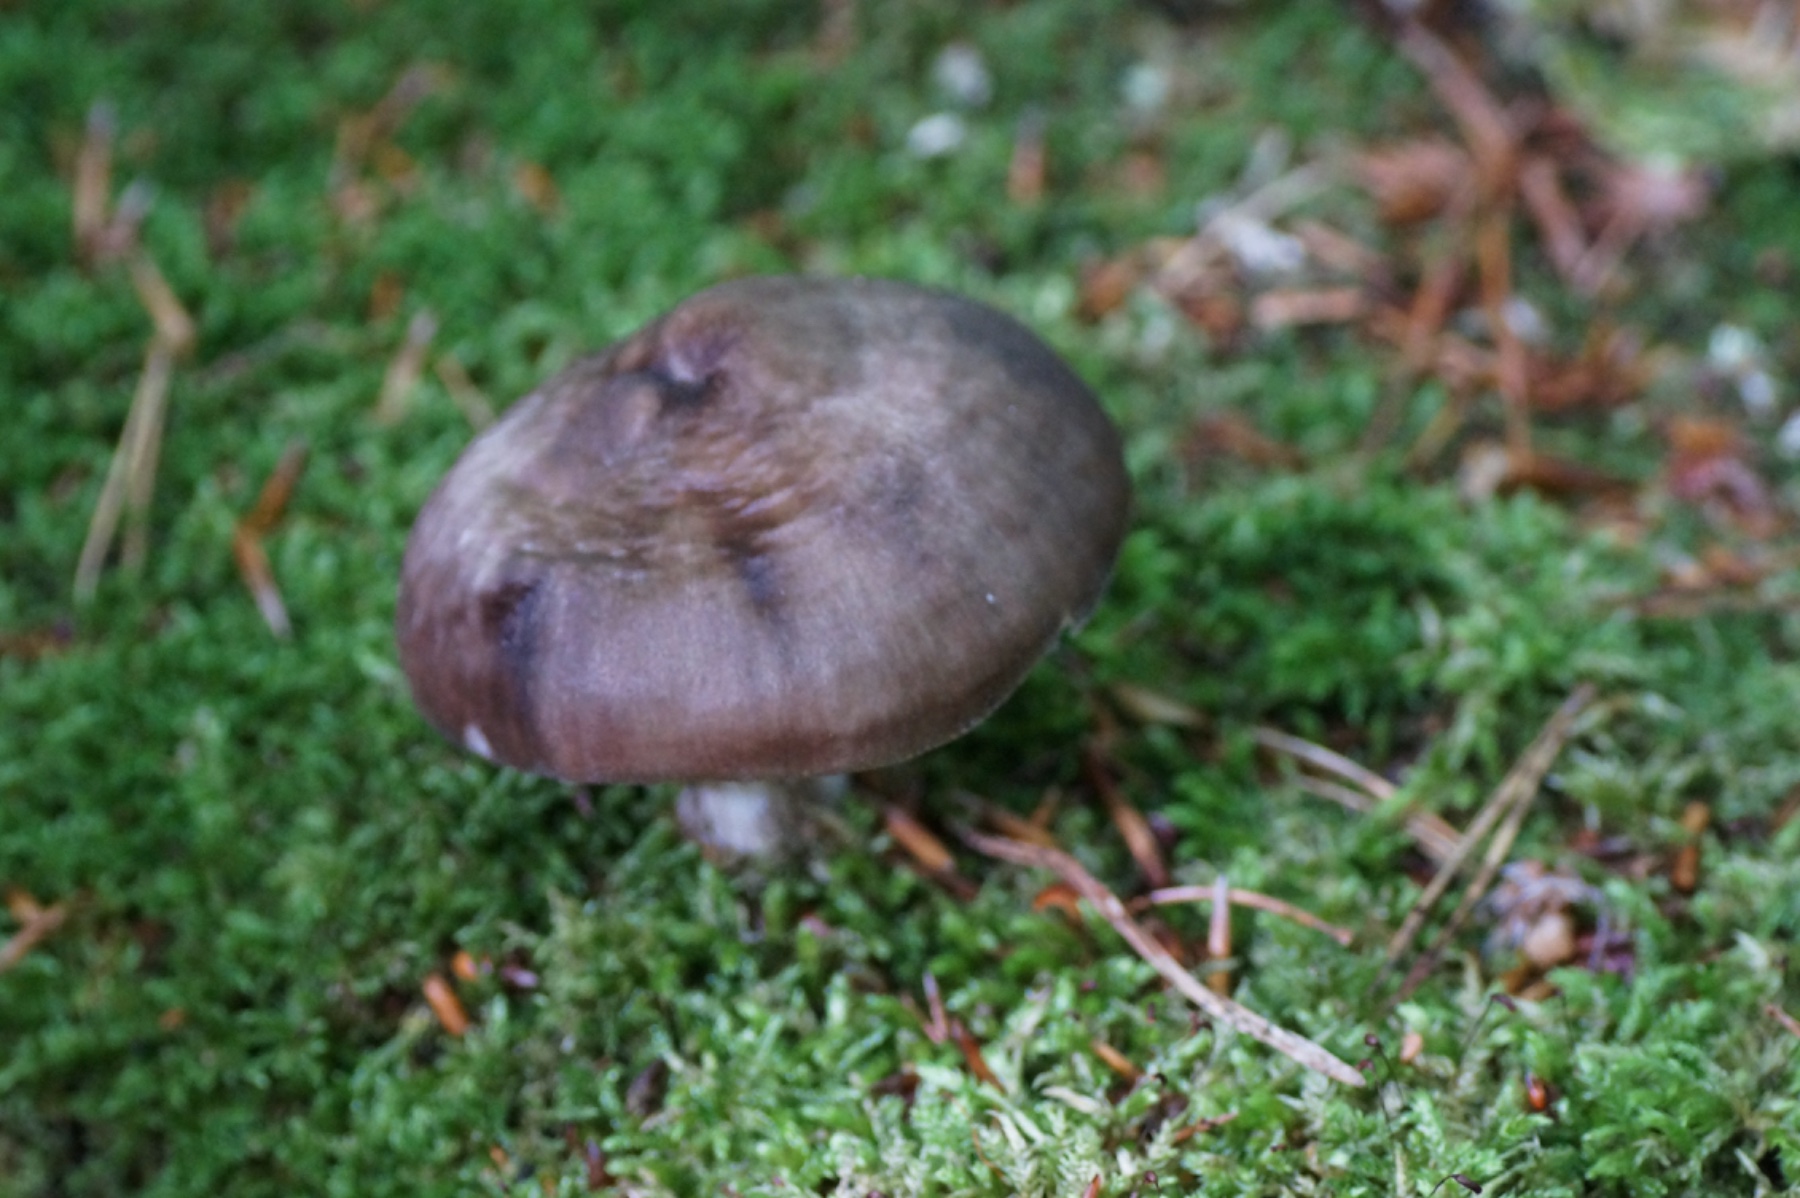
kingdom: Fungi
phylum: Basidiomycota
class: Agaricomycetes
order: Agaricales
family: Pluteaceae
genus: Pluteus
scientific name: Pluteus cervinus
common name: sodfarvet skærmhat
